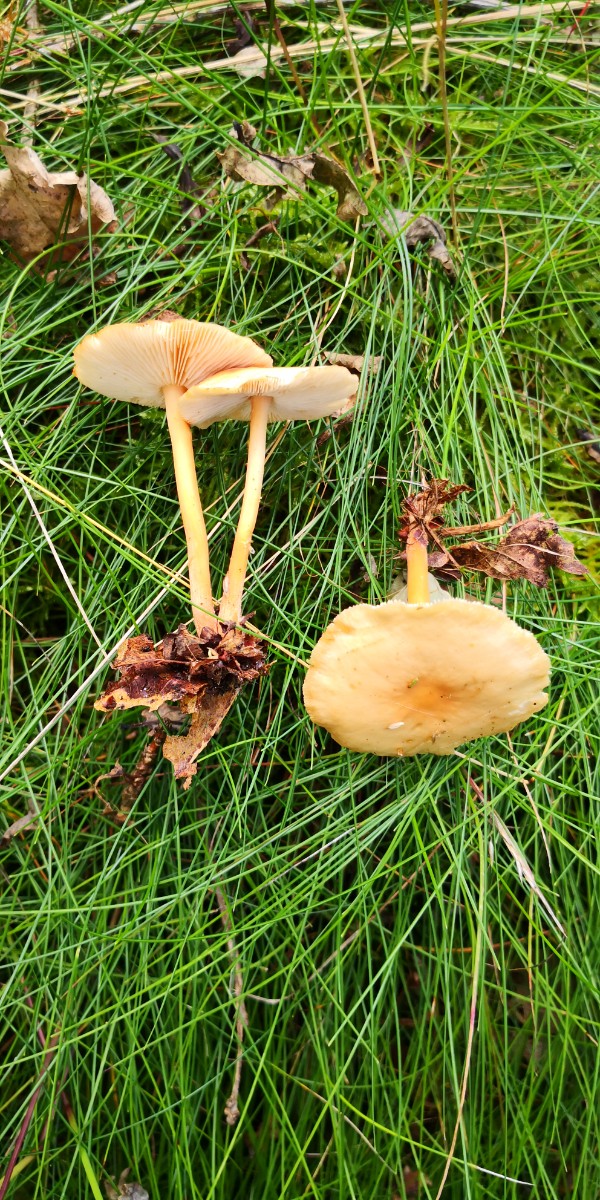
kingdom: Fungi
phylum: Basidiomycota
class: Agaricomycetes
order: Agaricales
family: Omphalotaceae
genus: Gymnopus
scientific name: Gymnopus
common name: fladhat
